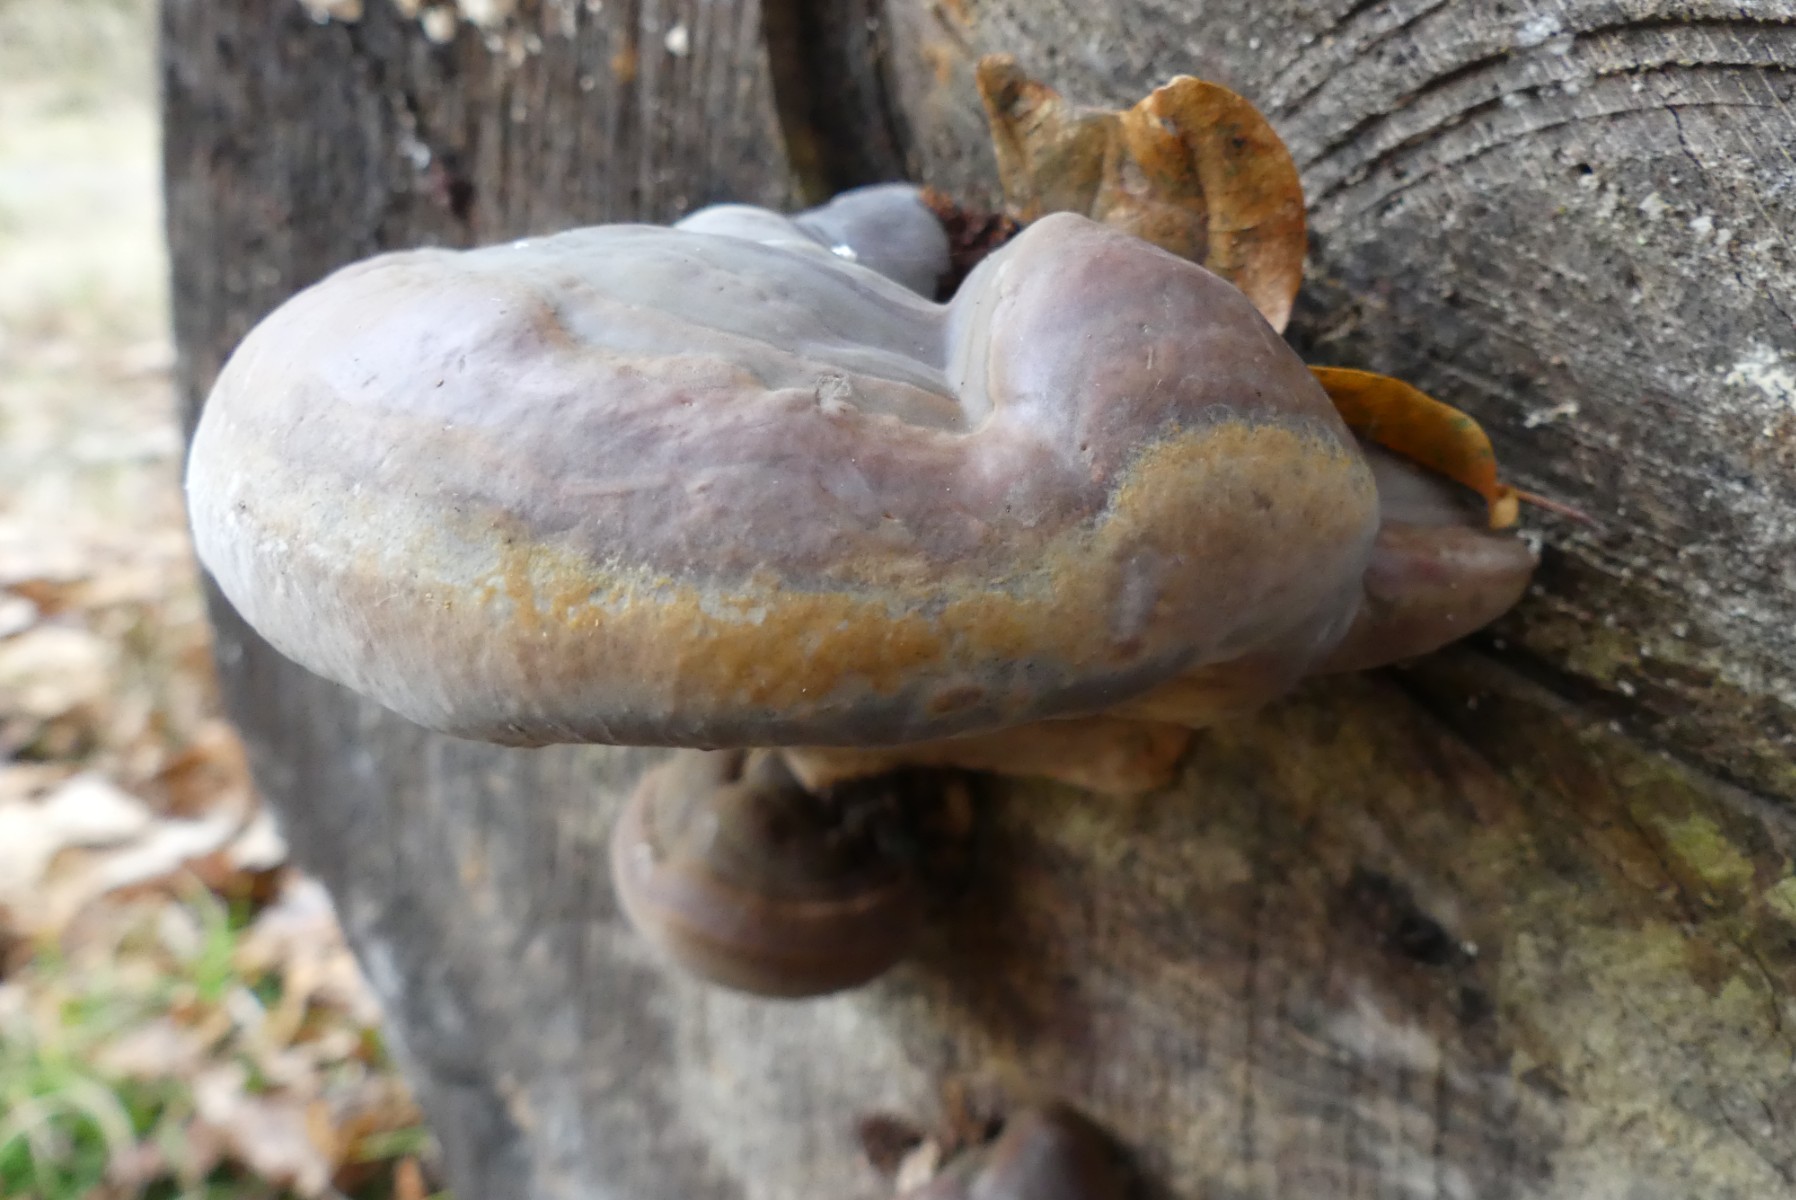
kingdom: Fungi
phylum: Basidiomycota
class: Agaricomycetes
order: Polyporales
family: Polyporaceae
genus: Ganoderma
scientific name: Ganoderma pfeifferi
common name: kobberrød lakporesvamp
